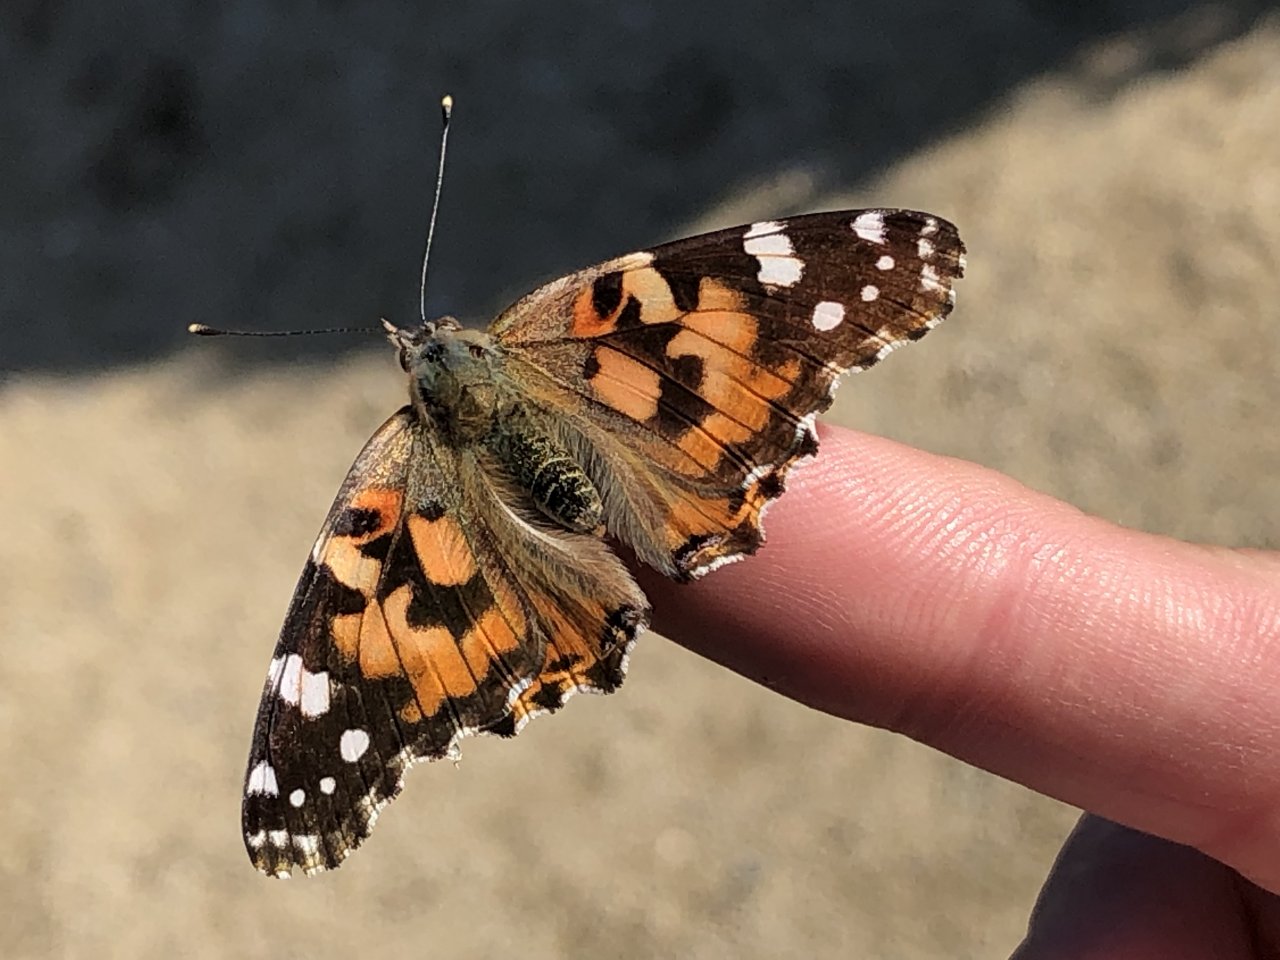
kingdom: Animalia
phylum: Arthropoda
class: Insecta
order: Lepidoptera
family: Nymphalidae
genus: Vanessa
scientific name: Vanessa cardui
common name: Painted Lady
